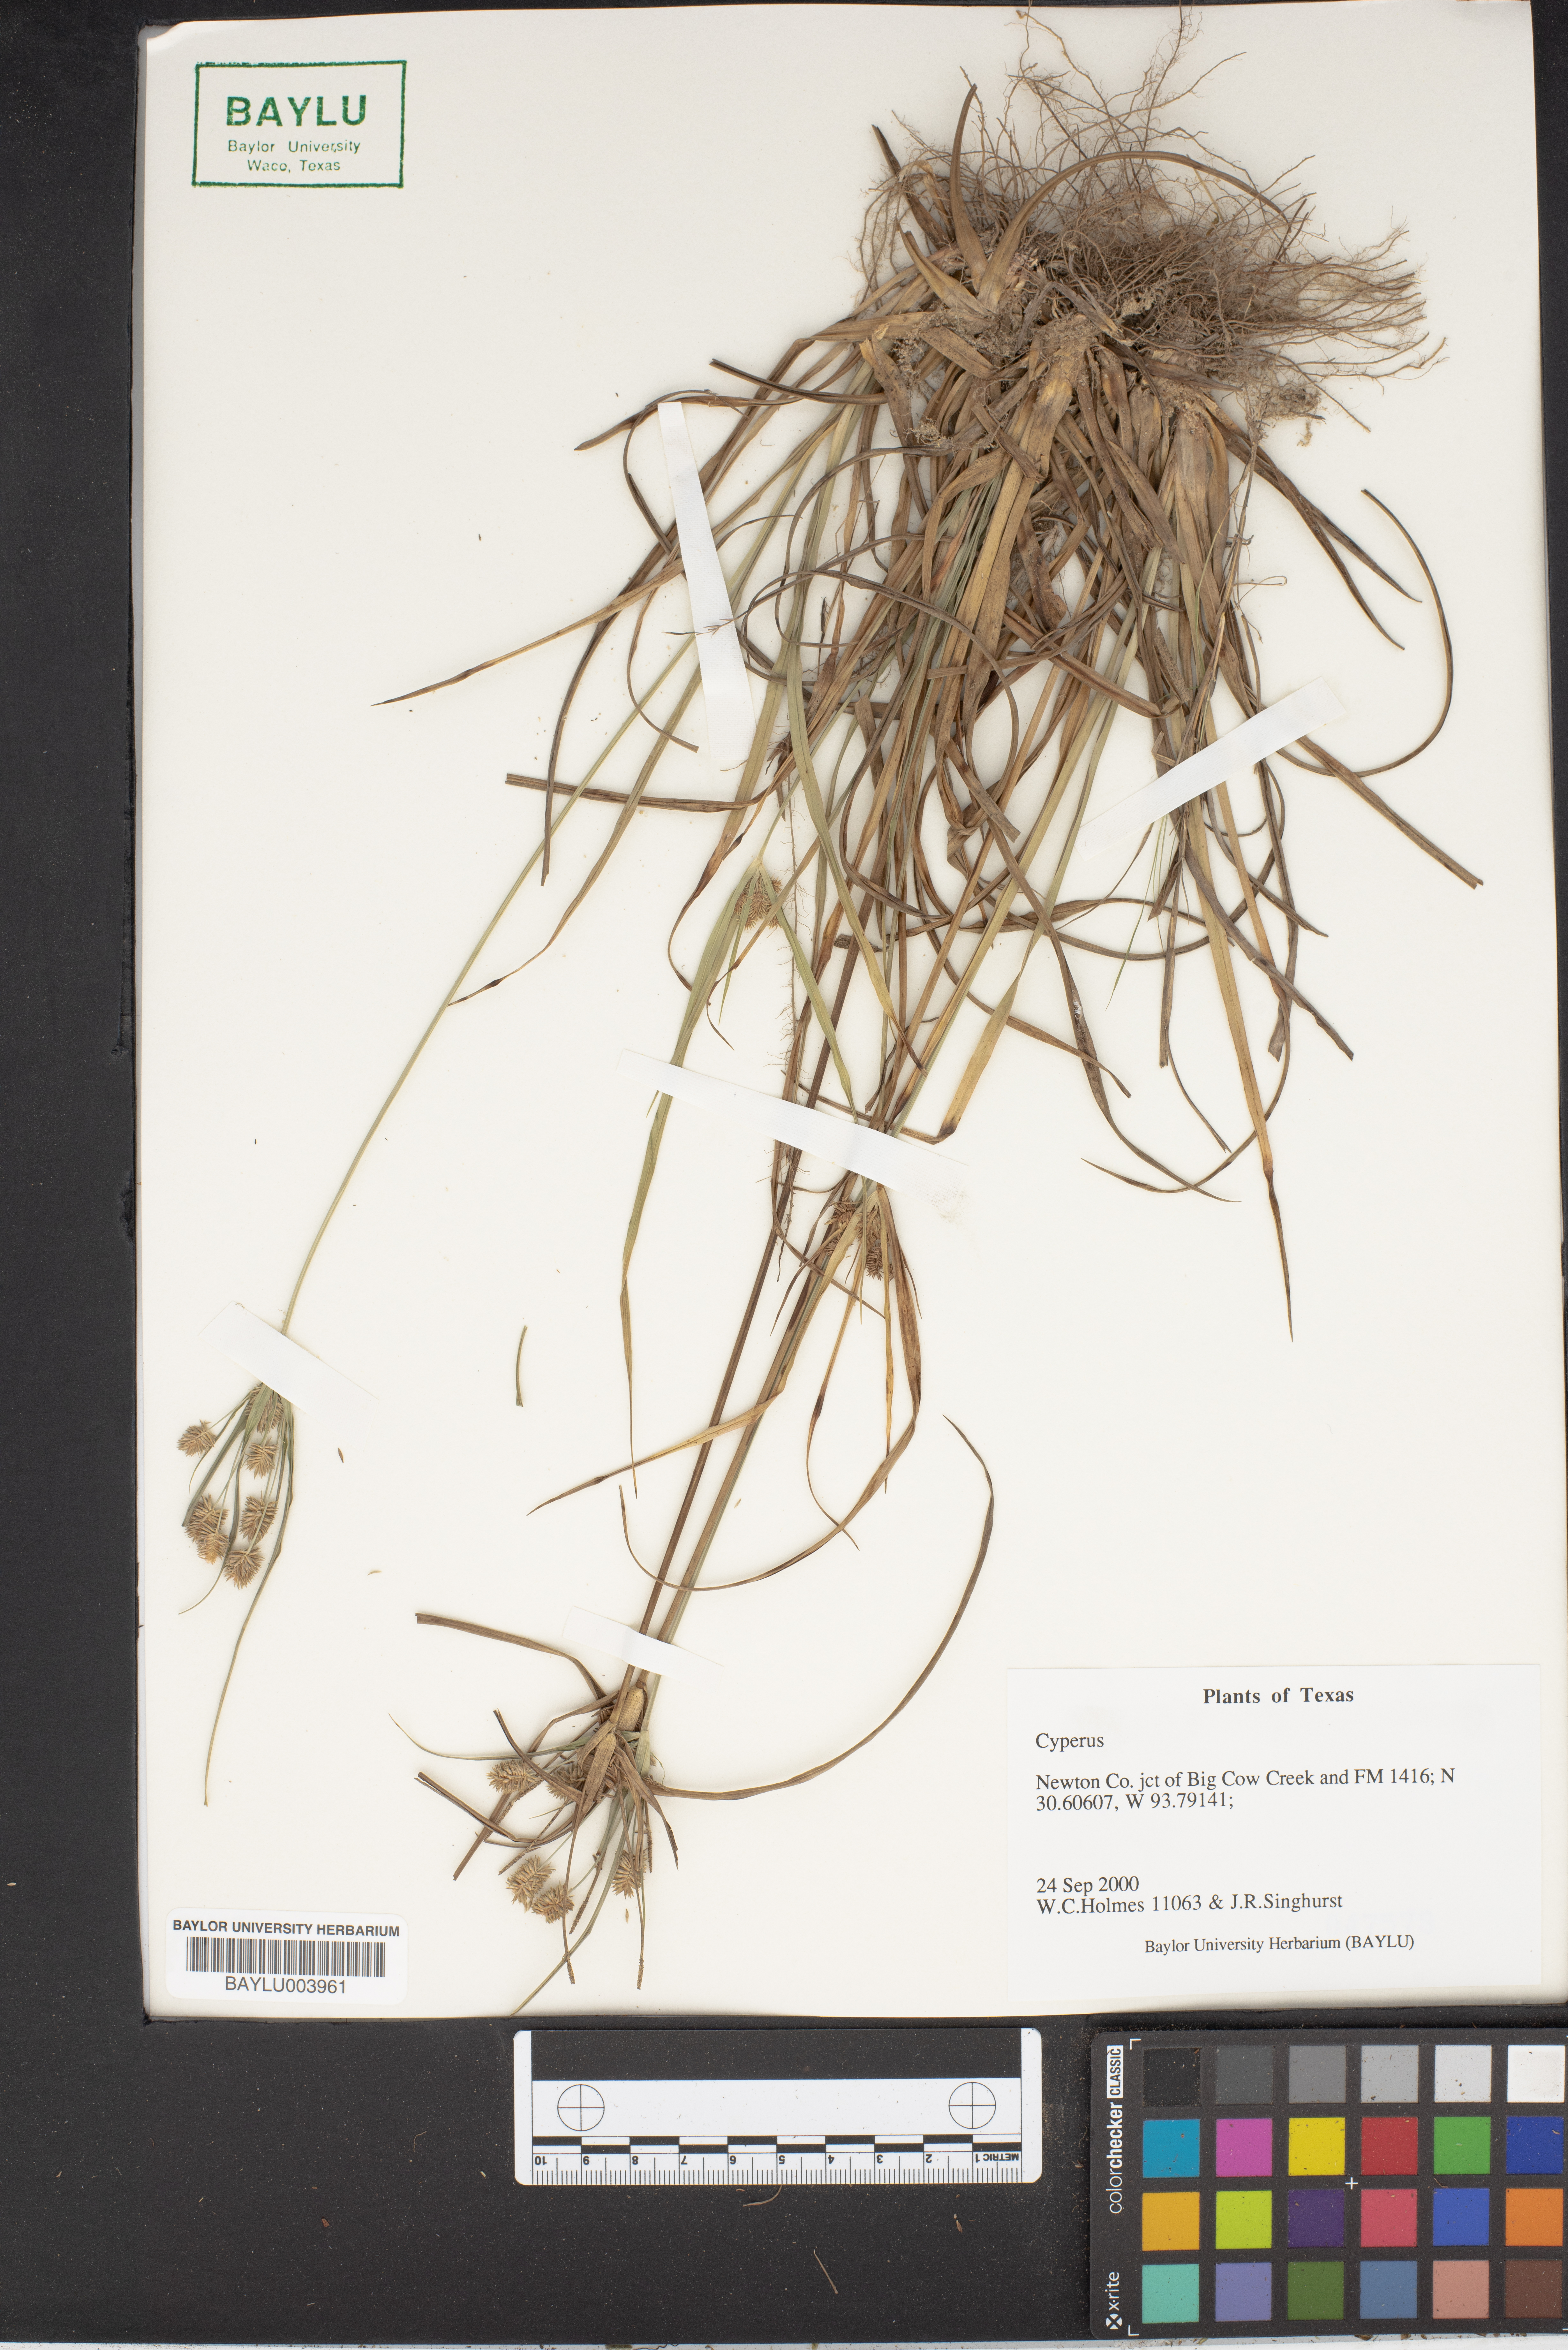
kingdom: Plantae
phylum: Tracheophyta
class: Liliopsida
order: Poales
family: Cyperaceae
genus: Cyperus
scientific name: Cyperus
